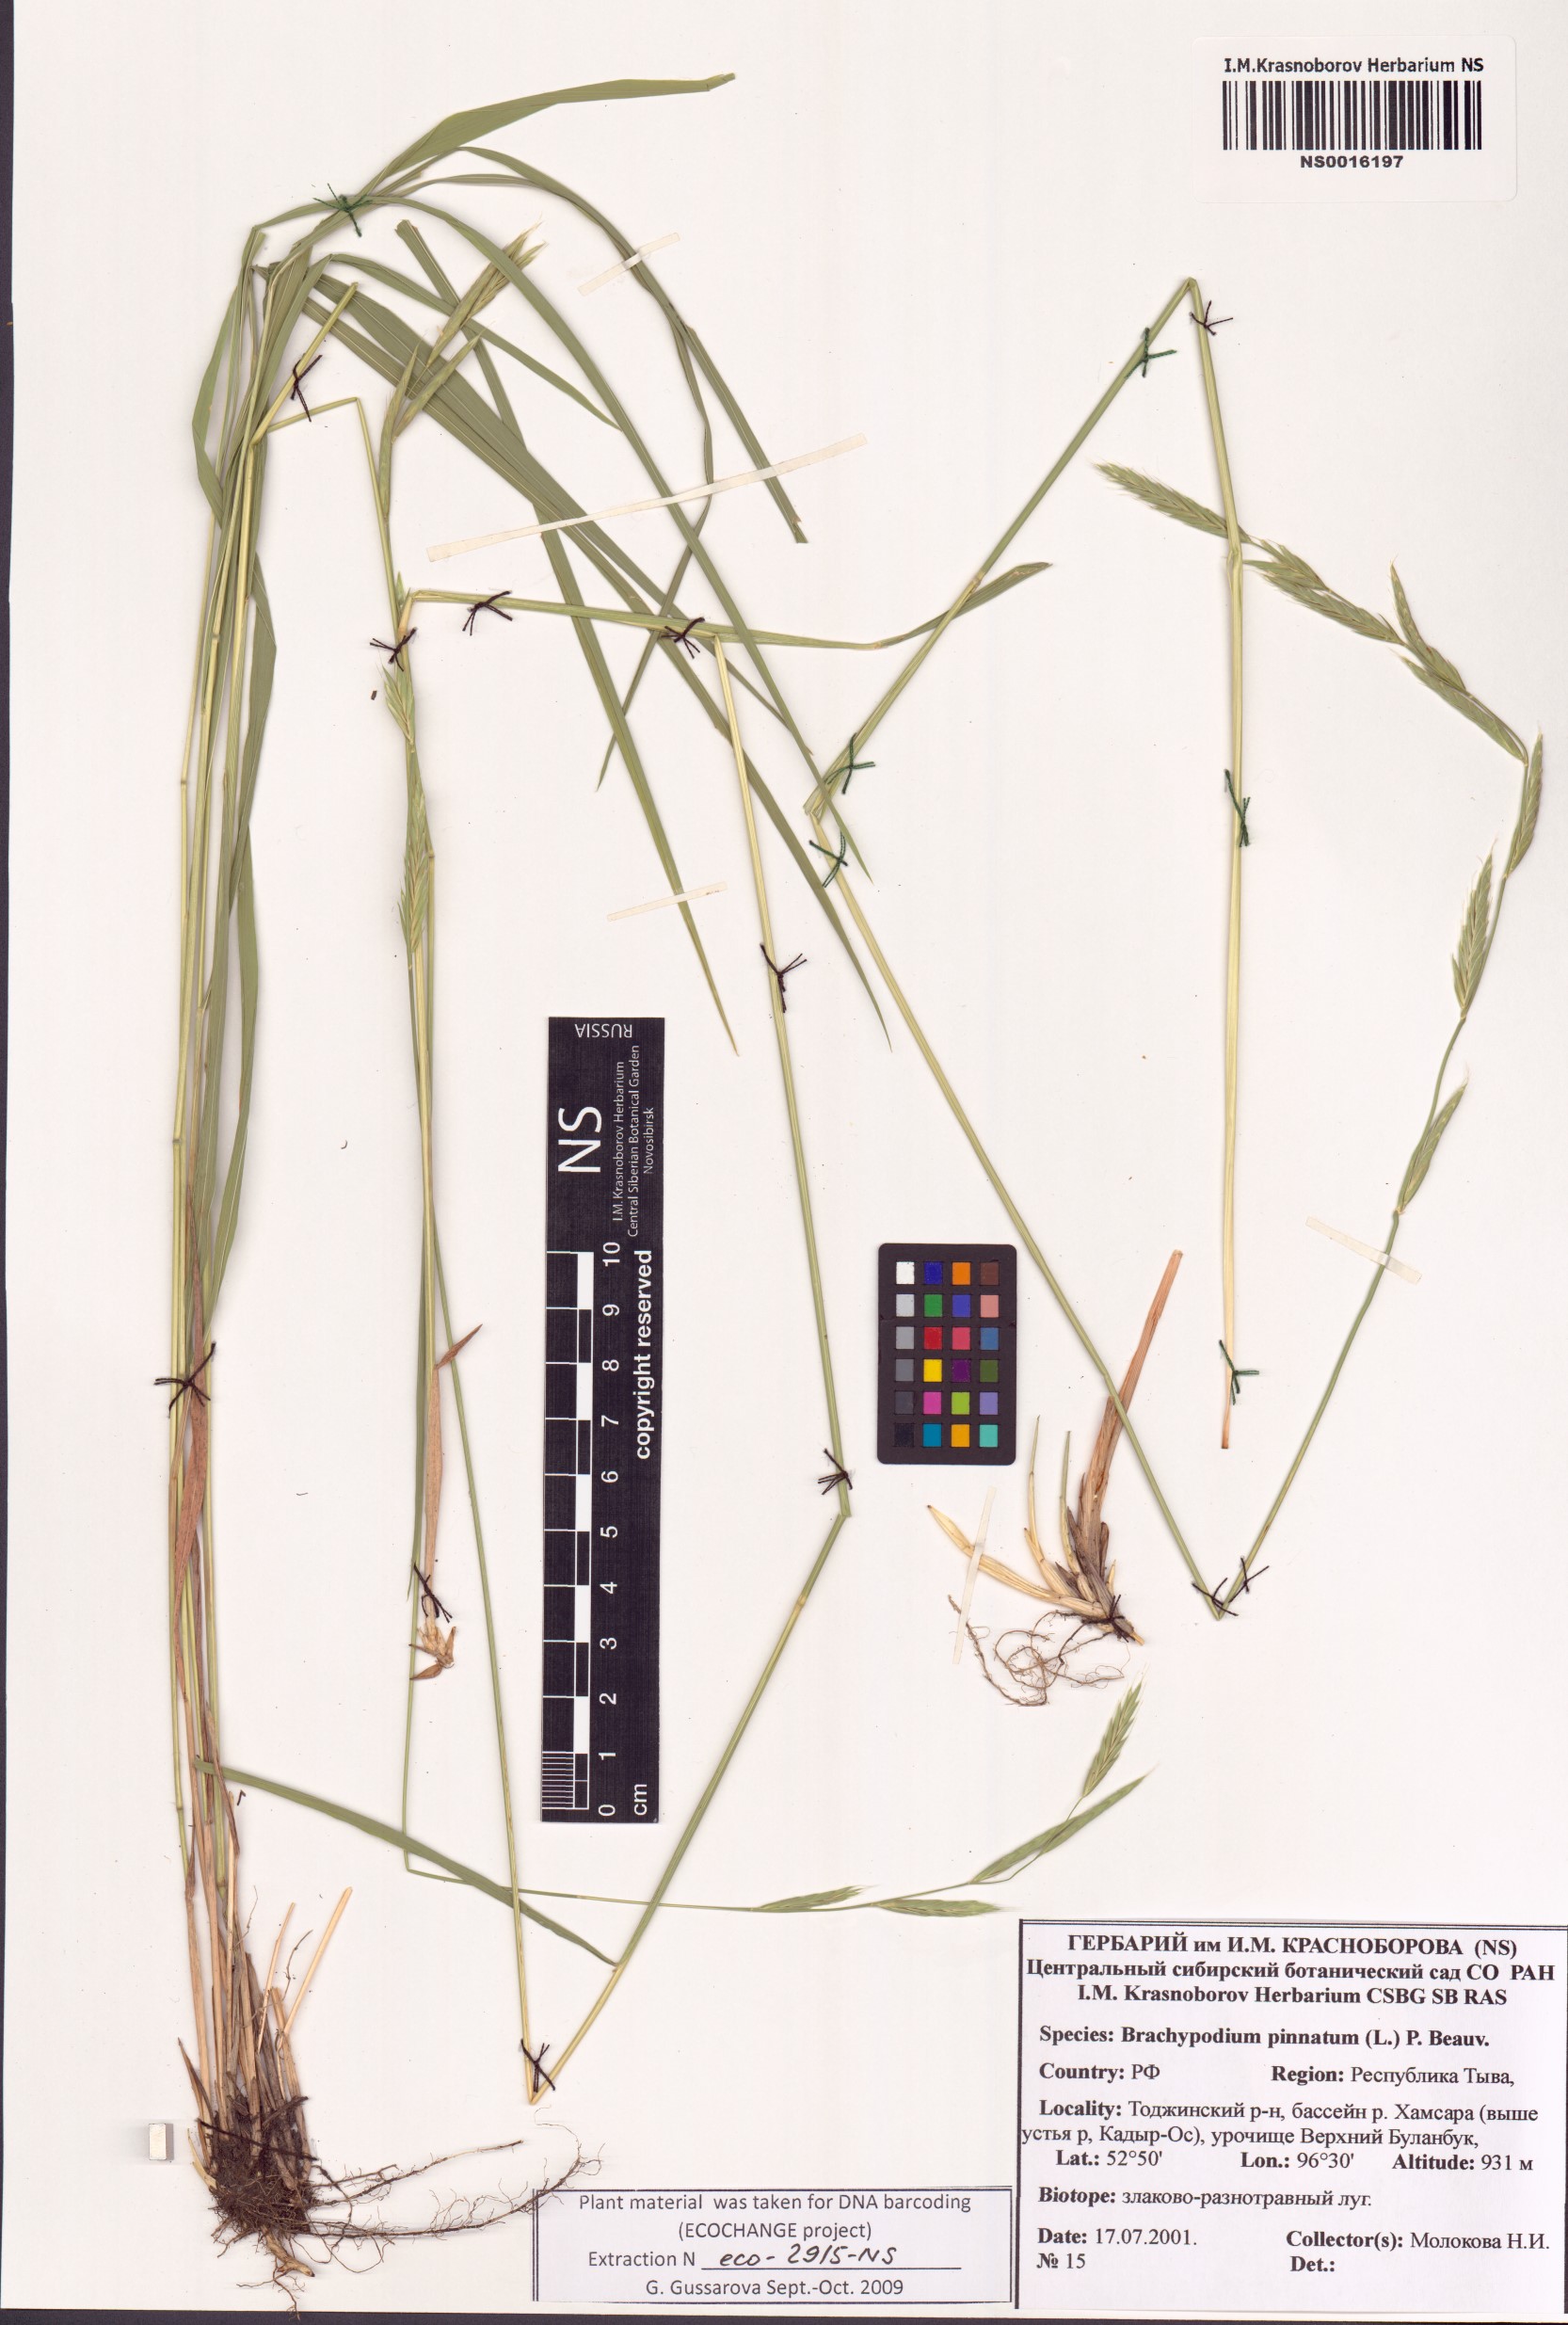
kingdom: Plantae
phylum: Tracheophyta
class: Liliopsida
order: Poales
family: Poaceae
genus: Brachypodium
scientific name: Brachypodium pinnatum
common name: Tor grass
